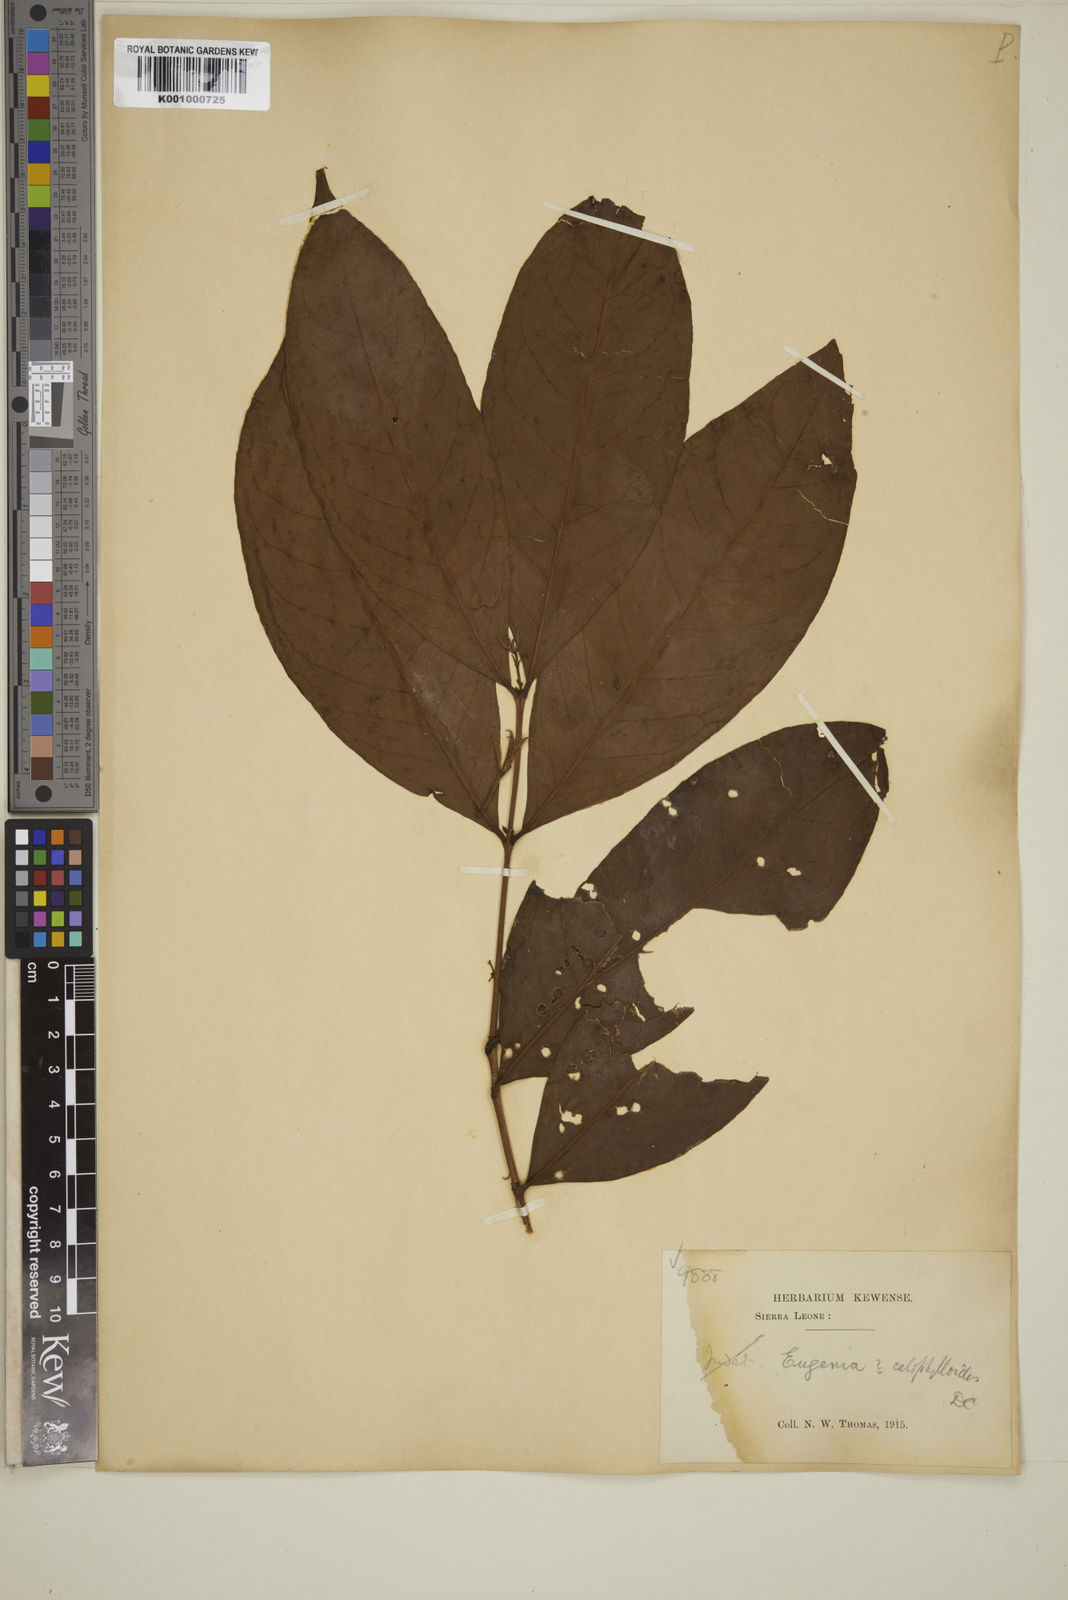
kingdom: Plantae
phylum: Tracheophyta
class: Magnoliopsida
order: Myrtales
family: Myrtaceae
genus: Eugenia
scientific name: Eugenia calophylloides
